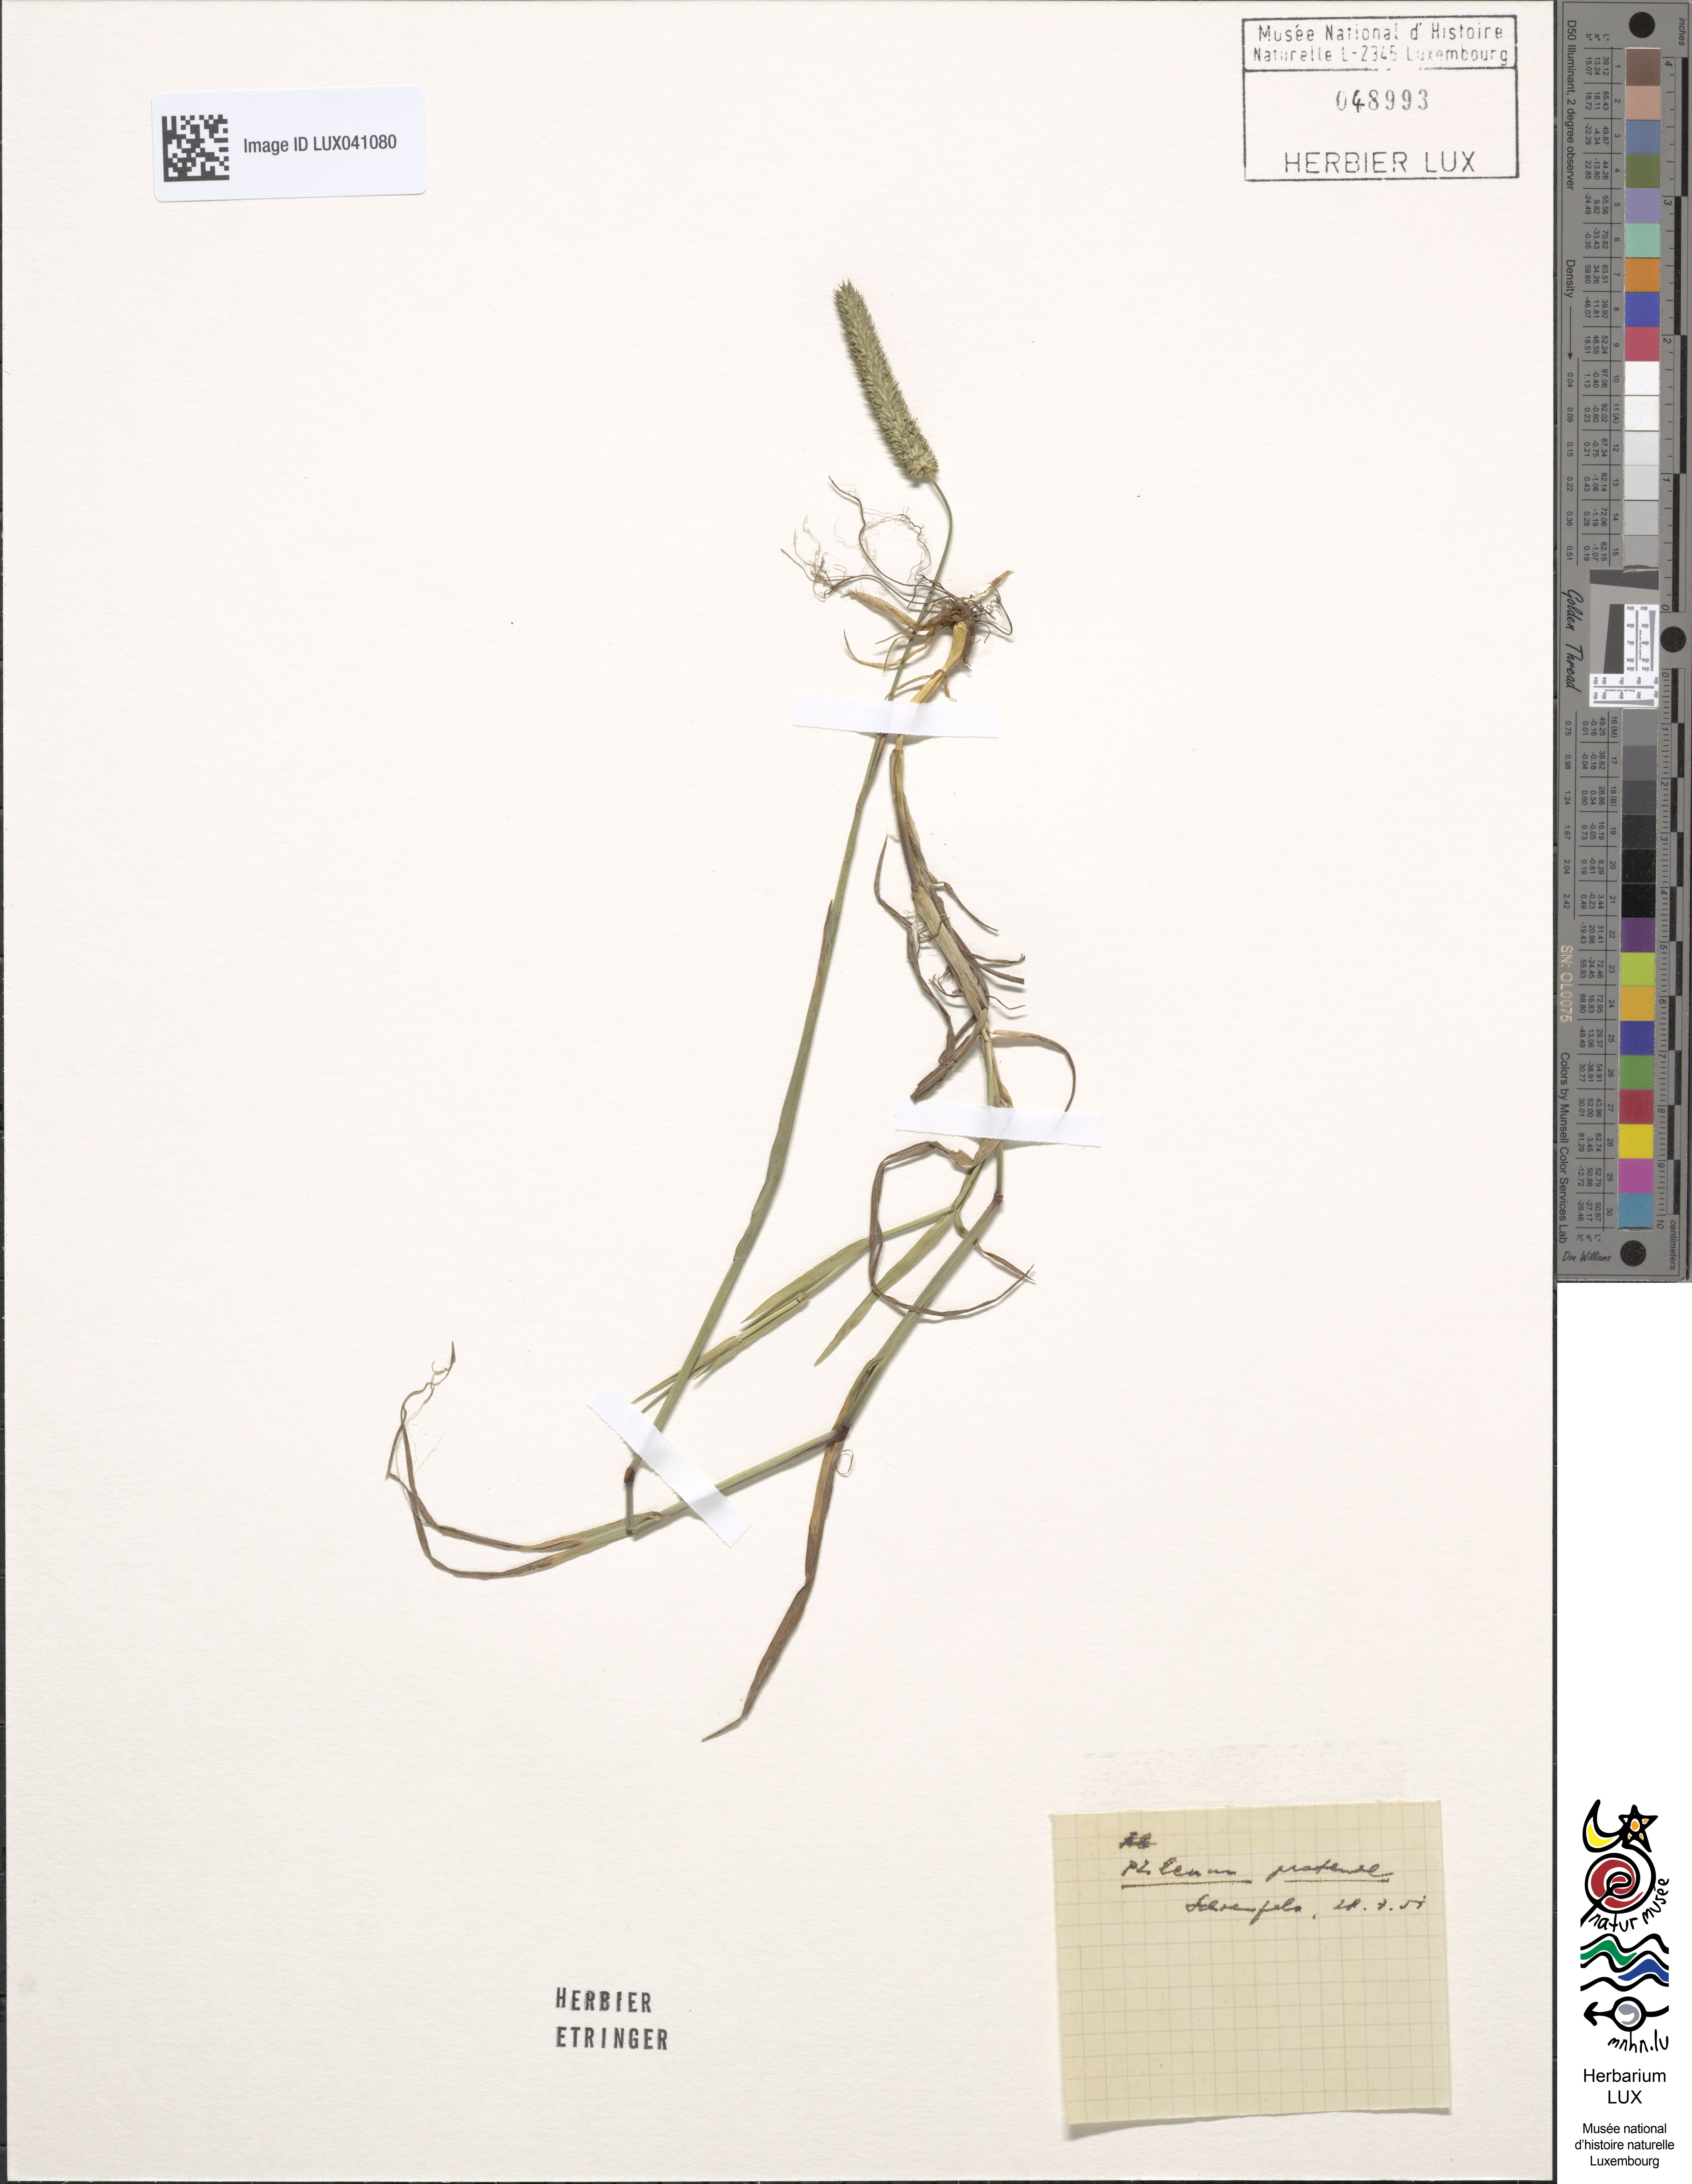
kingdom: Plantae
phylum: Tracheophyta
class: Liliopsida
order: Poales
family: Poaceae
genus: Phleum
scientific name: Phleum pratense
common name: Timothy grass
